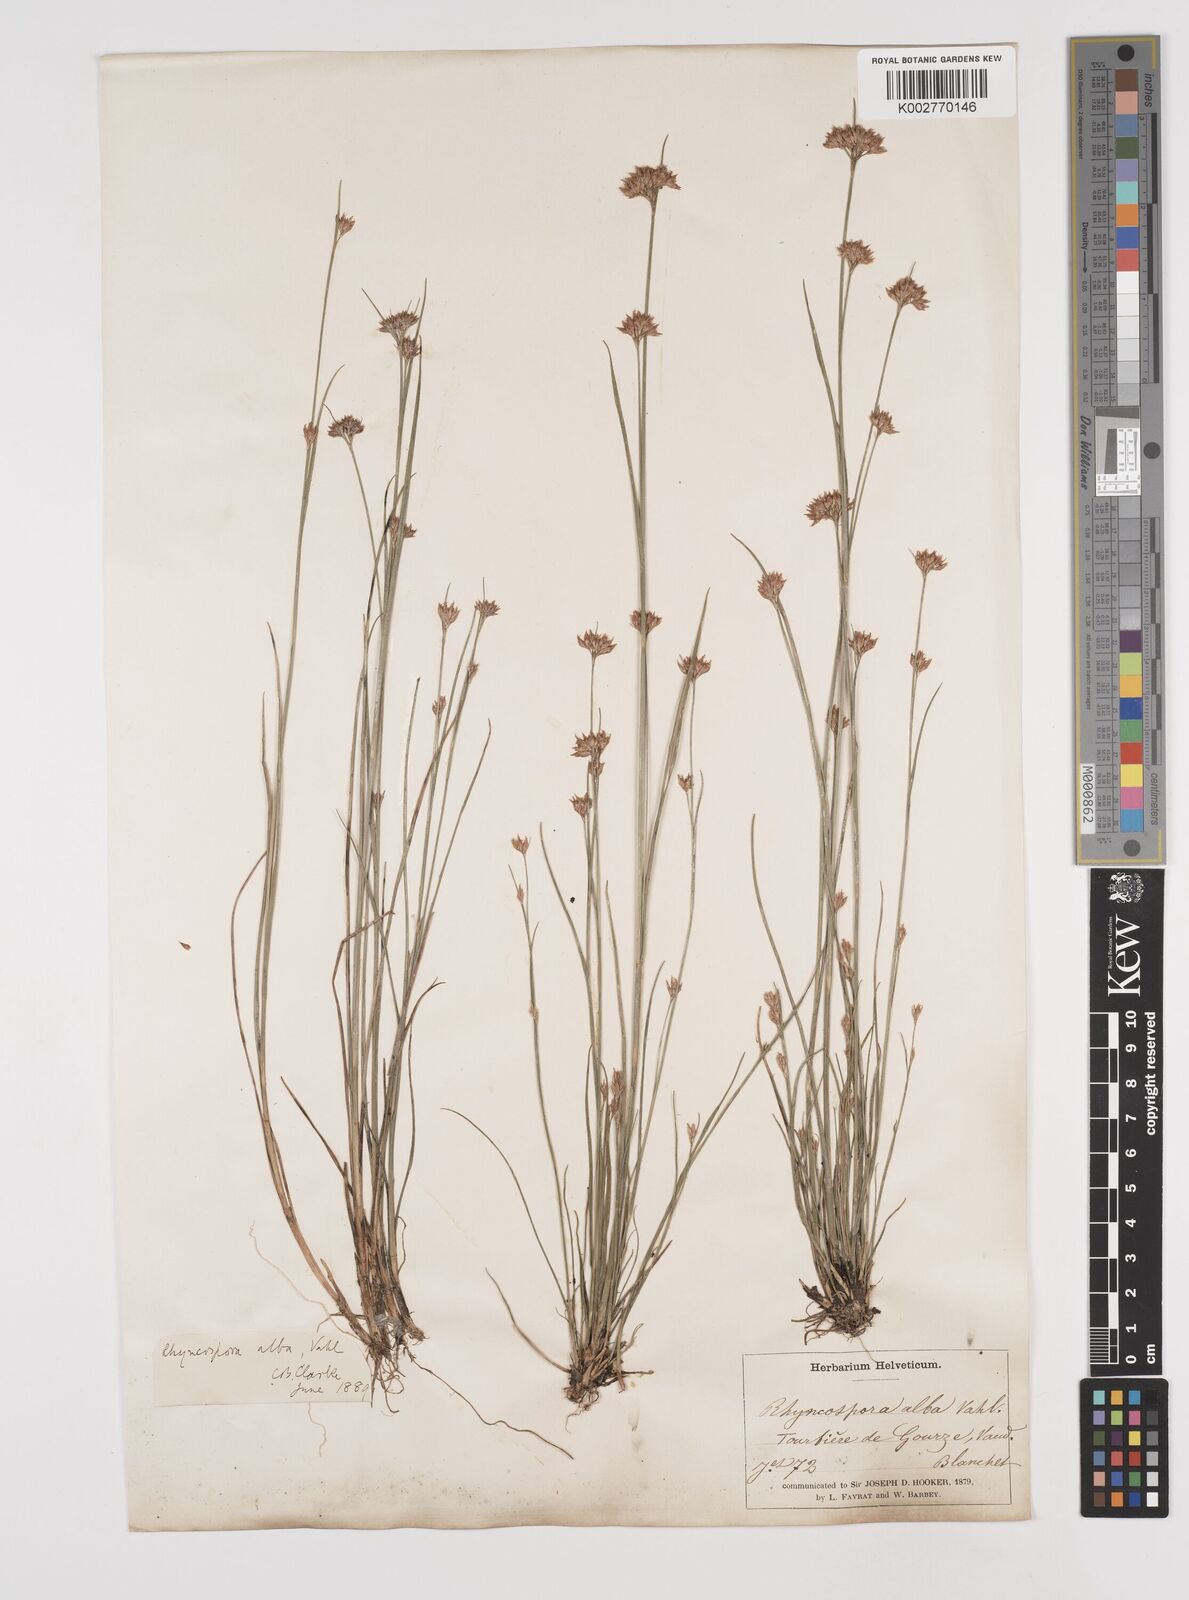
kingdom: Plantae
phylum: Tracheophyta
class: Liliopsida
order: Poales
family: Cyperaceae
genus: Rhynchospora
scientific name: Rhynchospora alba
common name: White beak-sedge
